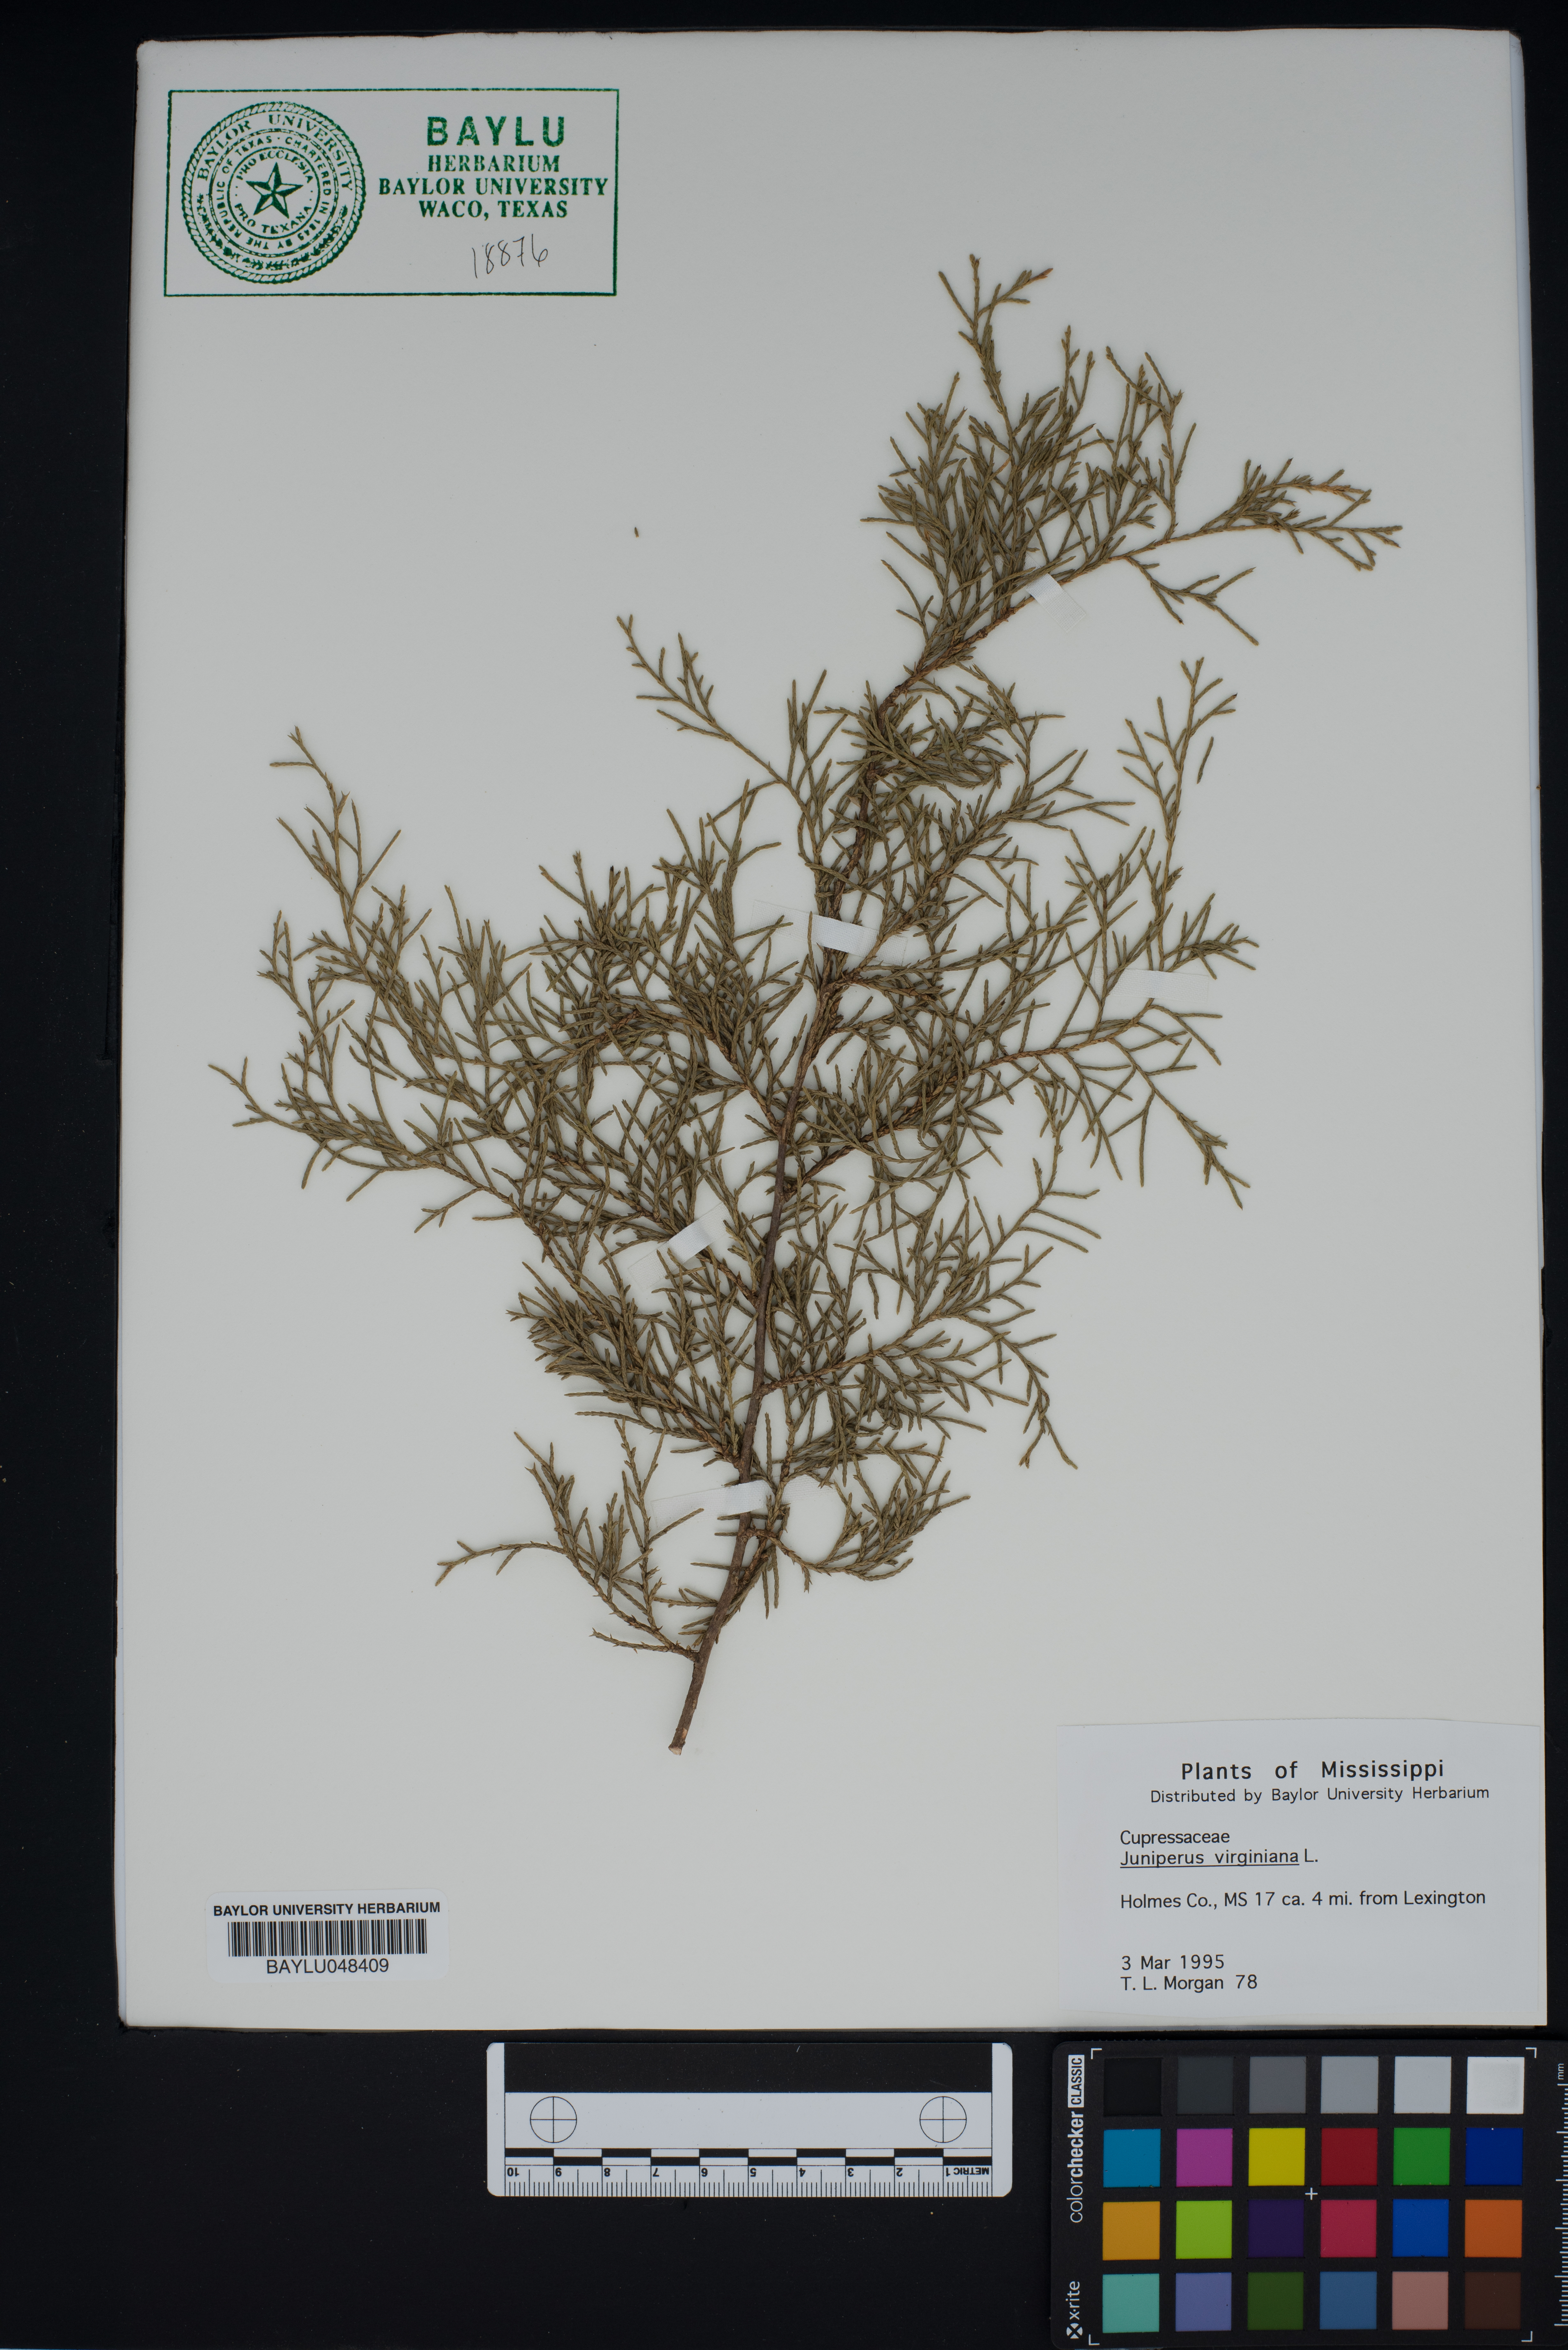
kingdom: Plantae
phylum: Tracheophyta
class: Pinopsida
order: Pinales
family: Cupressaceae
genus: Juniperus
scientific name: Juniperus virginiana
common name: Red juniper
